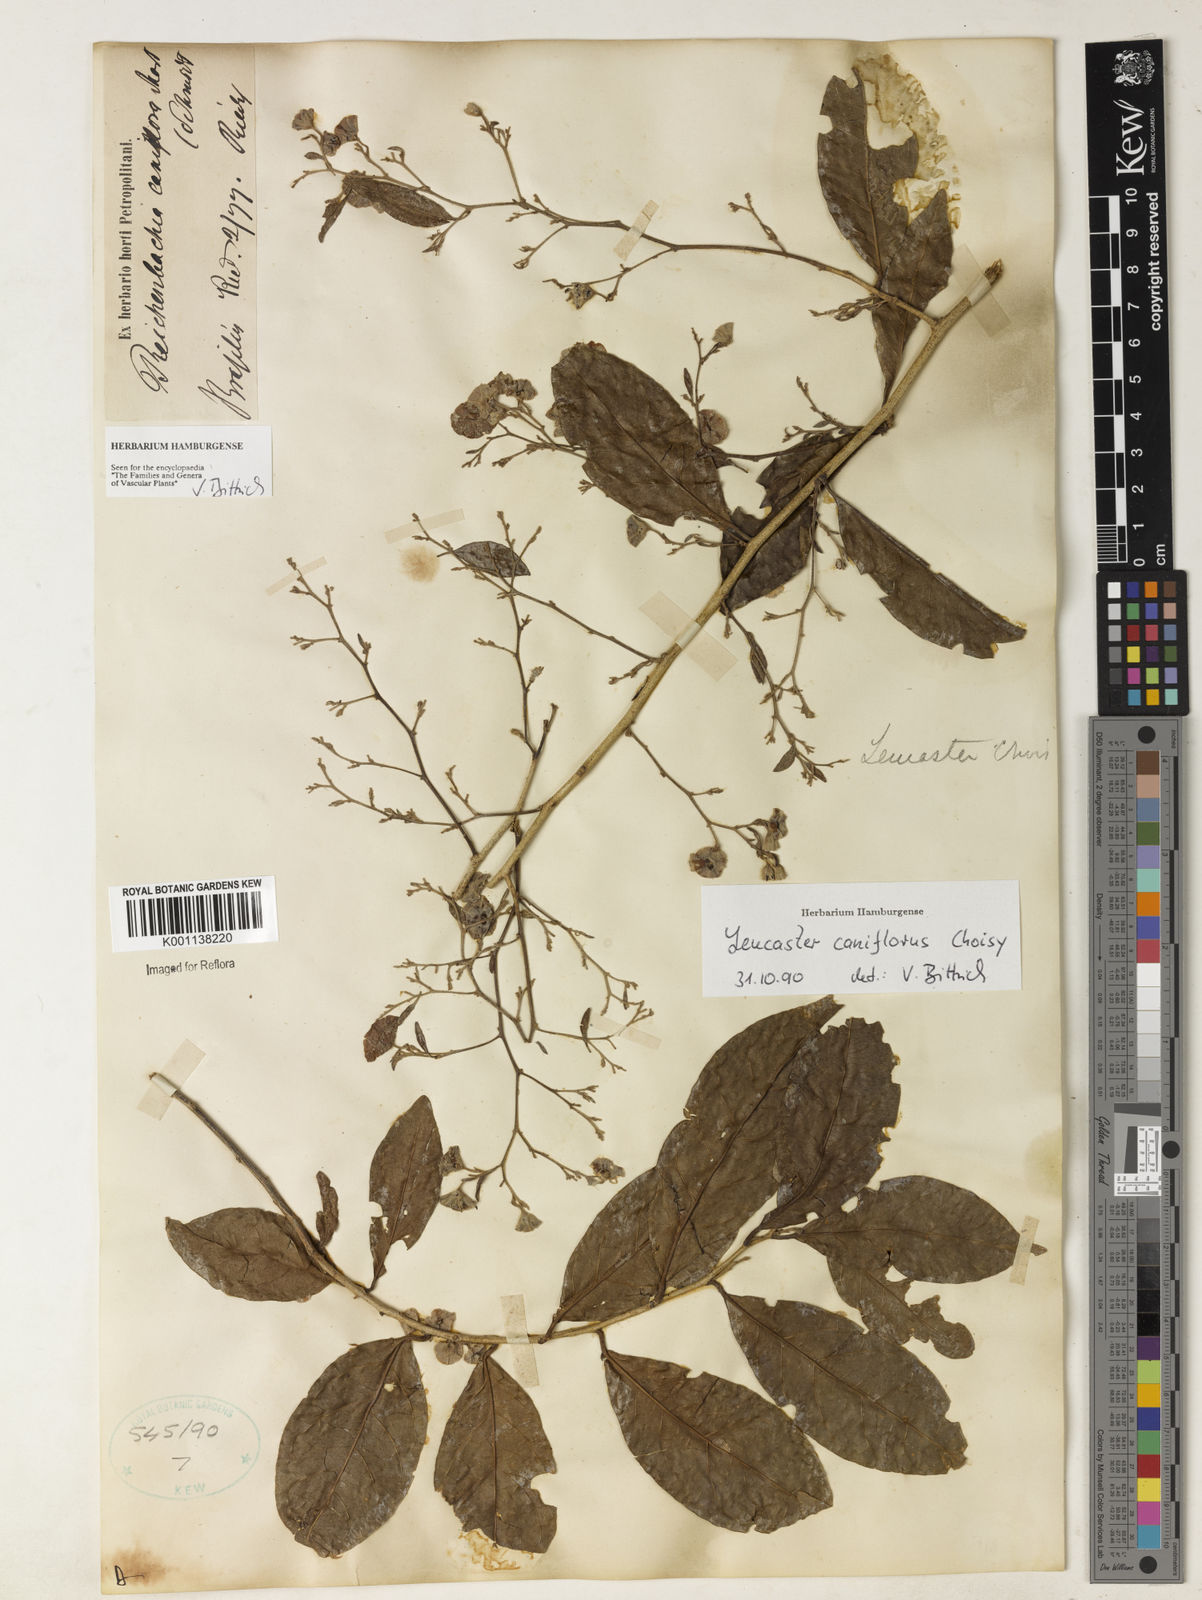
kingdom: Plantae
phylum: Tracheophyta
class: Magnoliopsida
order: Caryophyllales
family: Nyctaginaceae
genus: Leucaster
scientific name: Leucaster caniflorus
